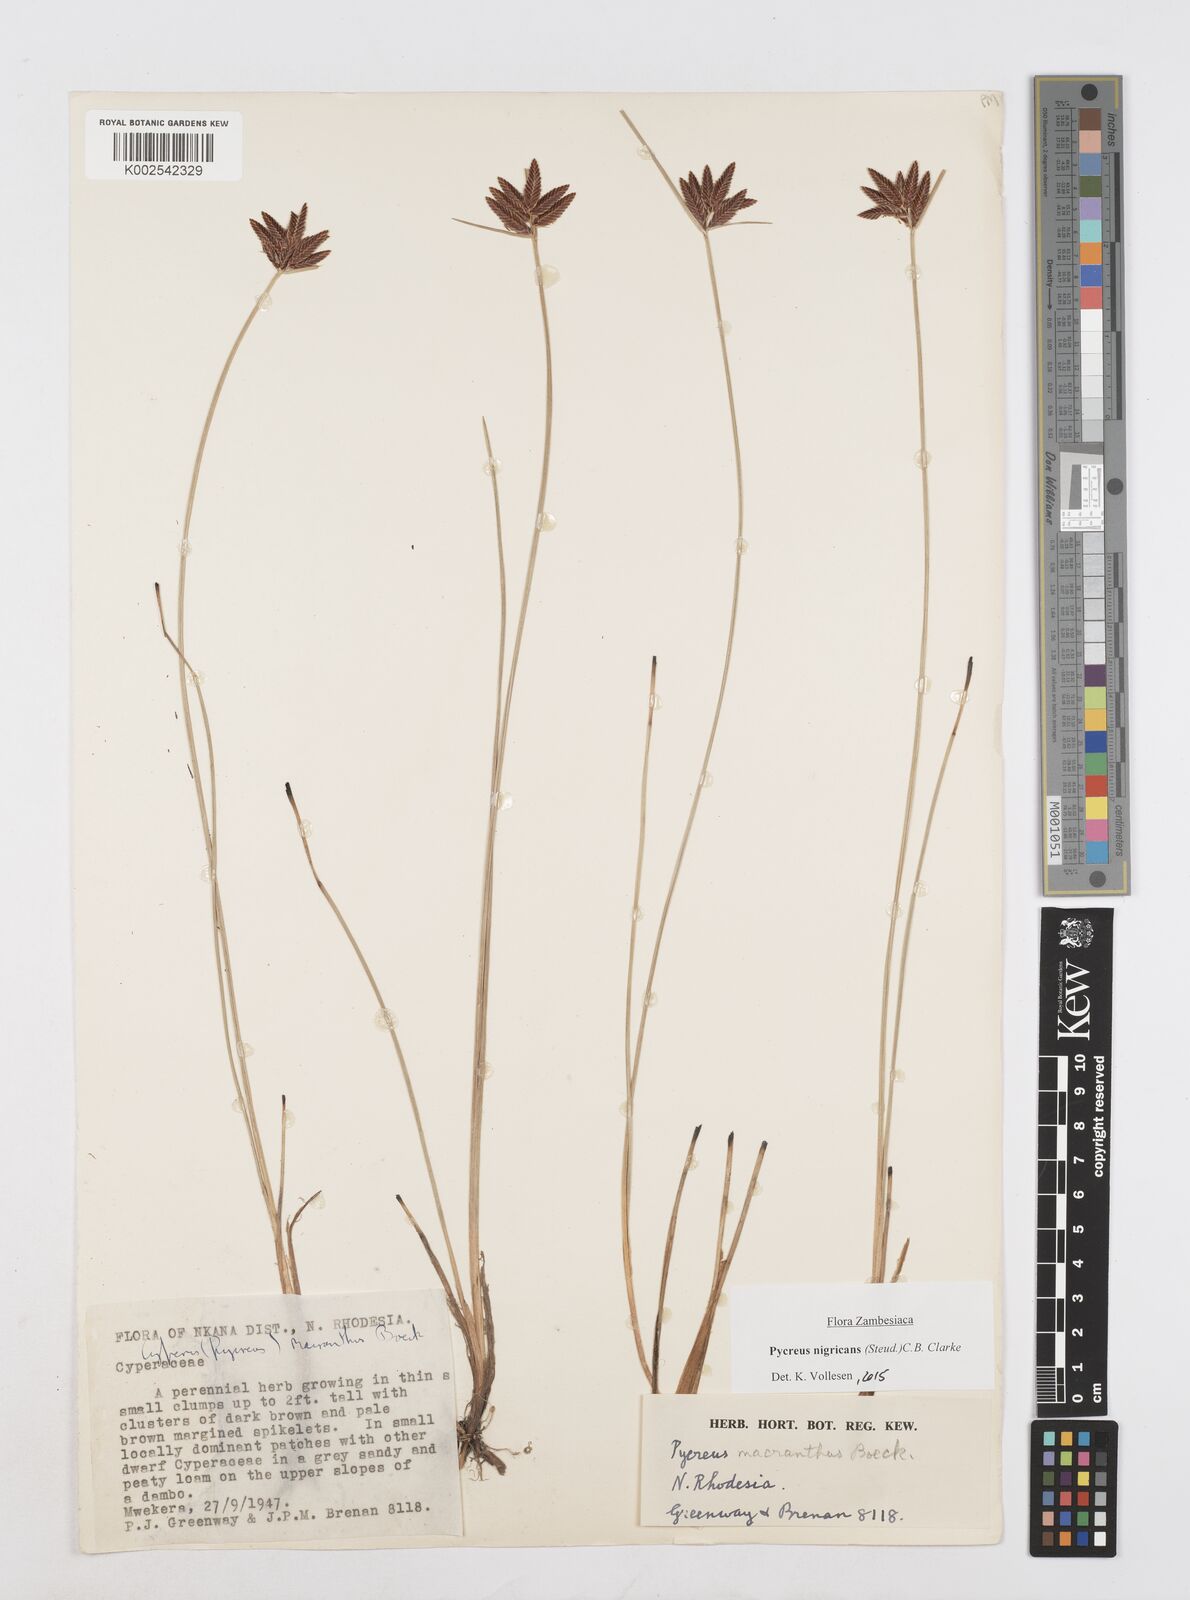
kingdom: Plantae
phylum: Tracheophyta
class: Liliopsida
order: Poales
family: Cyperaceae
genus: Cyperus
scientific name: Cyperus nigricans
